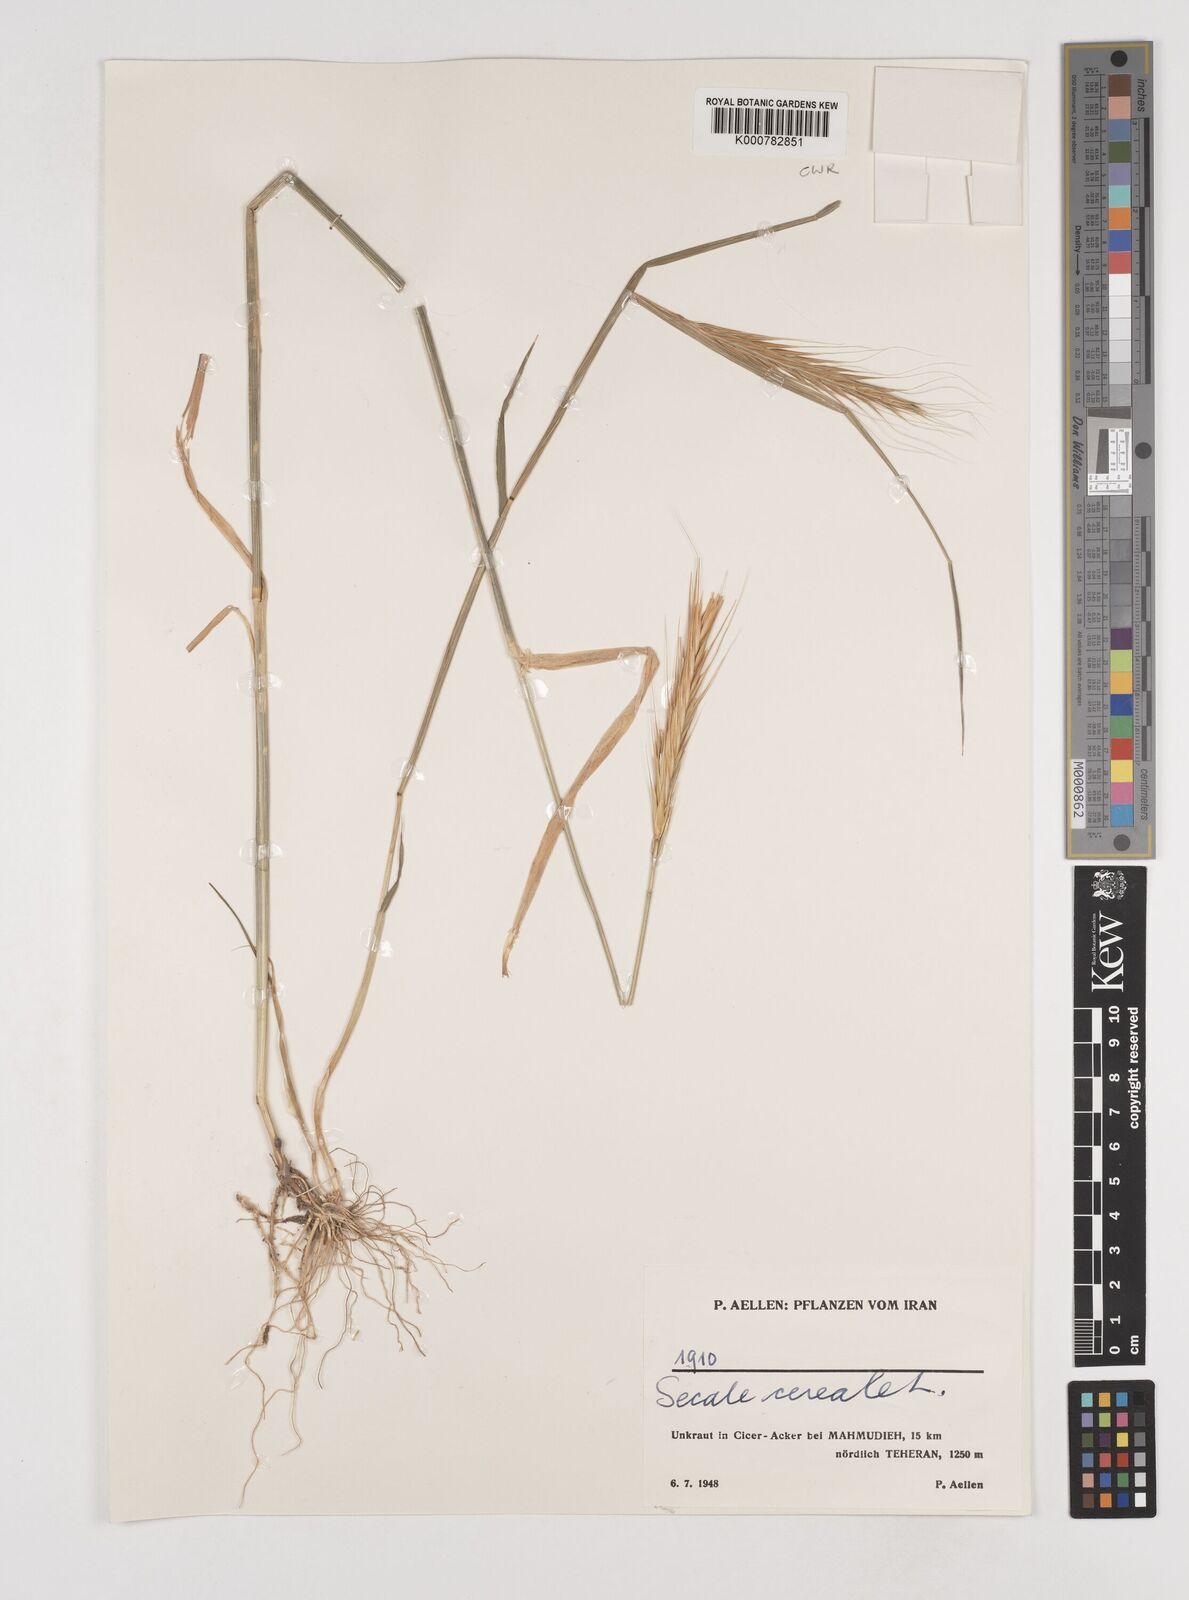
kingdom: Plantae
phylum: Tracheophyta
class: Liliopsida
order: Poales
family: Poaceae
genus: Secale
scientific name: Secale cereale
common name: Rye
